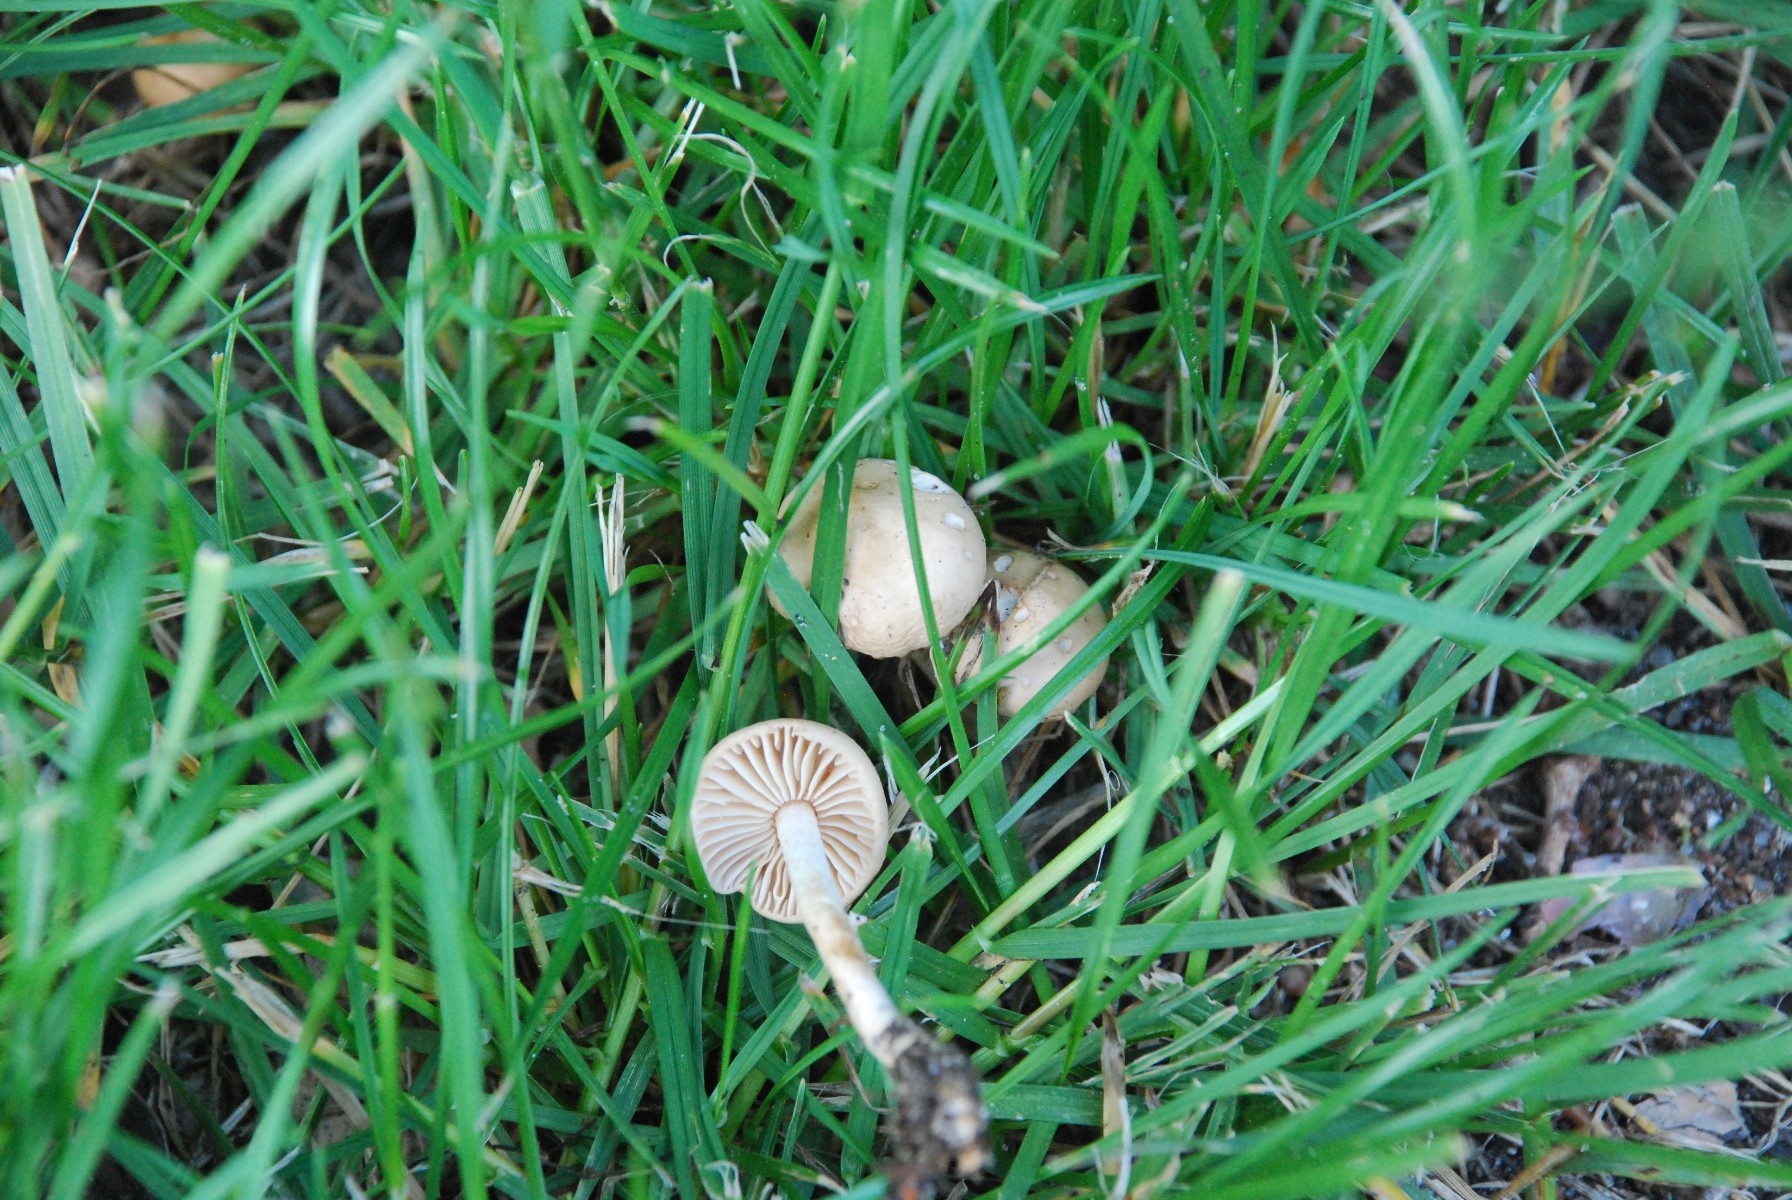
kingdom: Fungi
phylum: Basidiomycota
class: Agaricomycetes
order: Agaricales
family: Marasmiaceae
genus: Marasmius
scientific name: Marasmius oreades
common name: elledans-bruskhat
